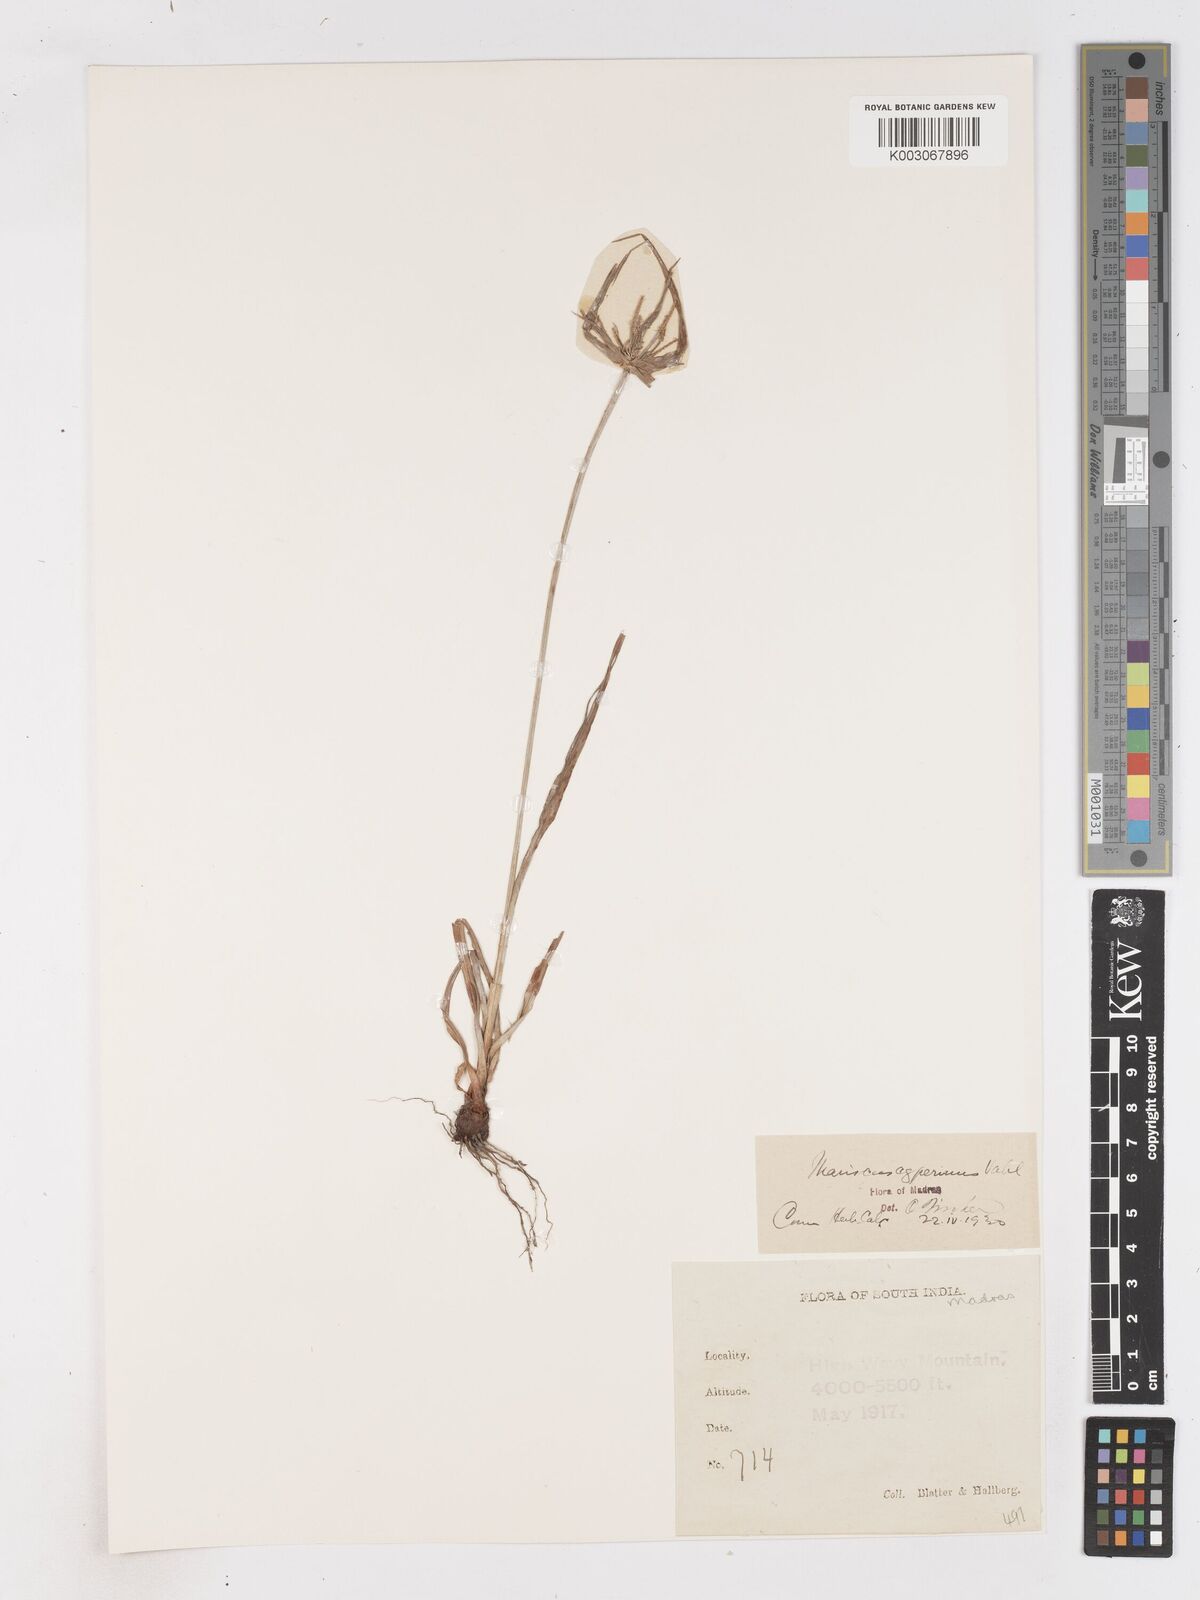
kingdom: Plantae
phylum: Tracheophyta
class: Liliopsida
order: Poales
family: Cyperaceae
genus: Cyperus
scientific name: Cyperus cyperinus
